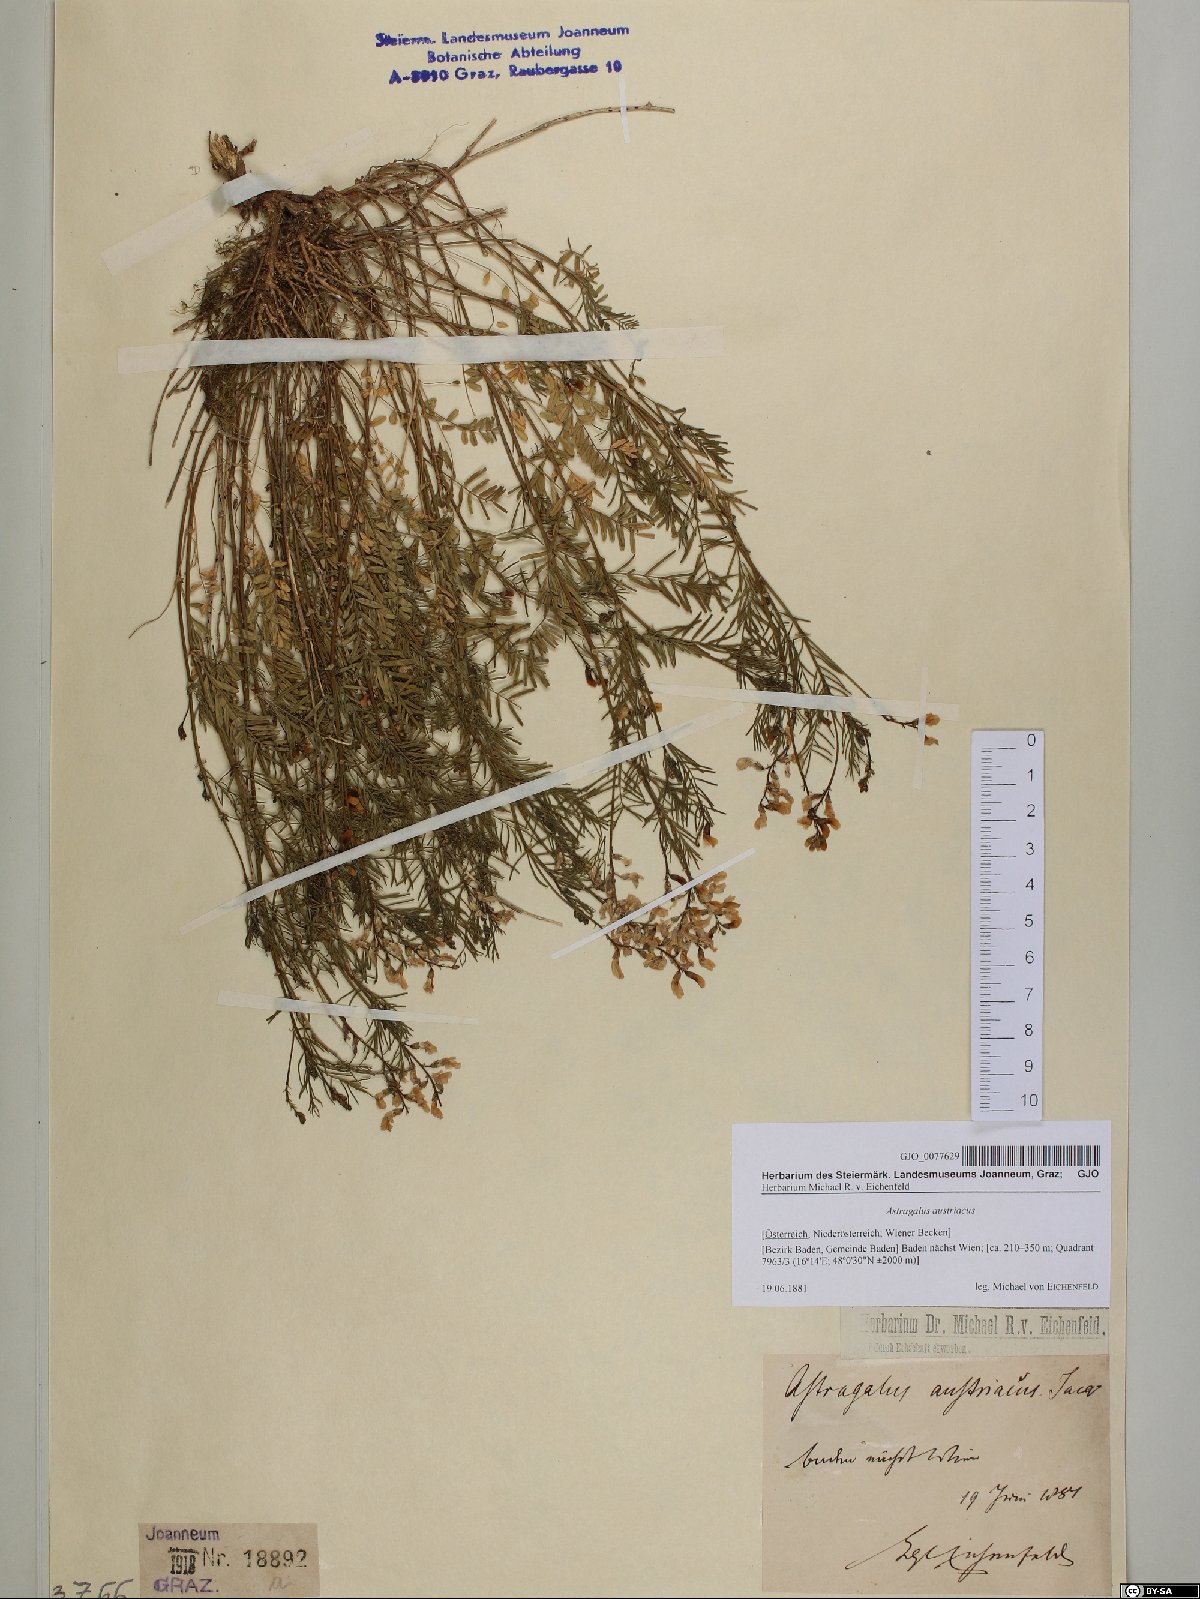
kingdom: Plantae
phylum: Tracheophyta
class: Magnoliopsida
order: Fabales
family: Fabaceae
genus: Astragalus
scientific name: Astragalus austriacus
